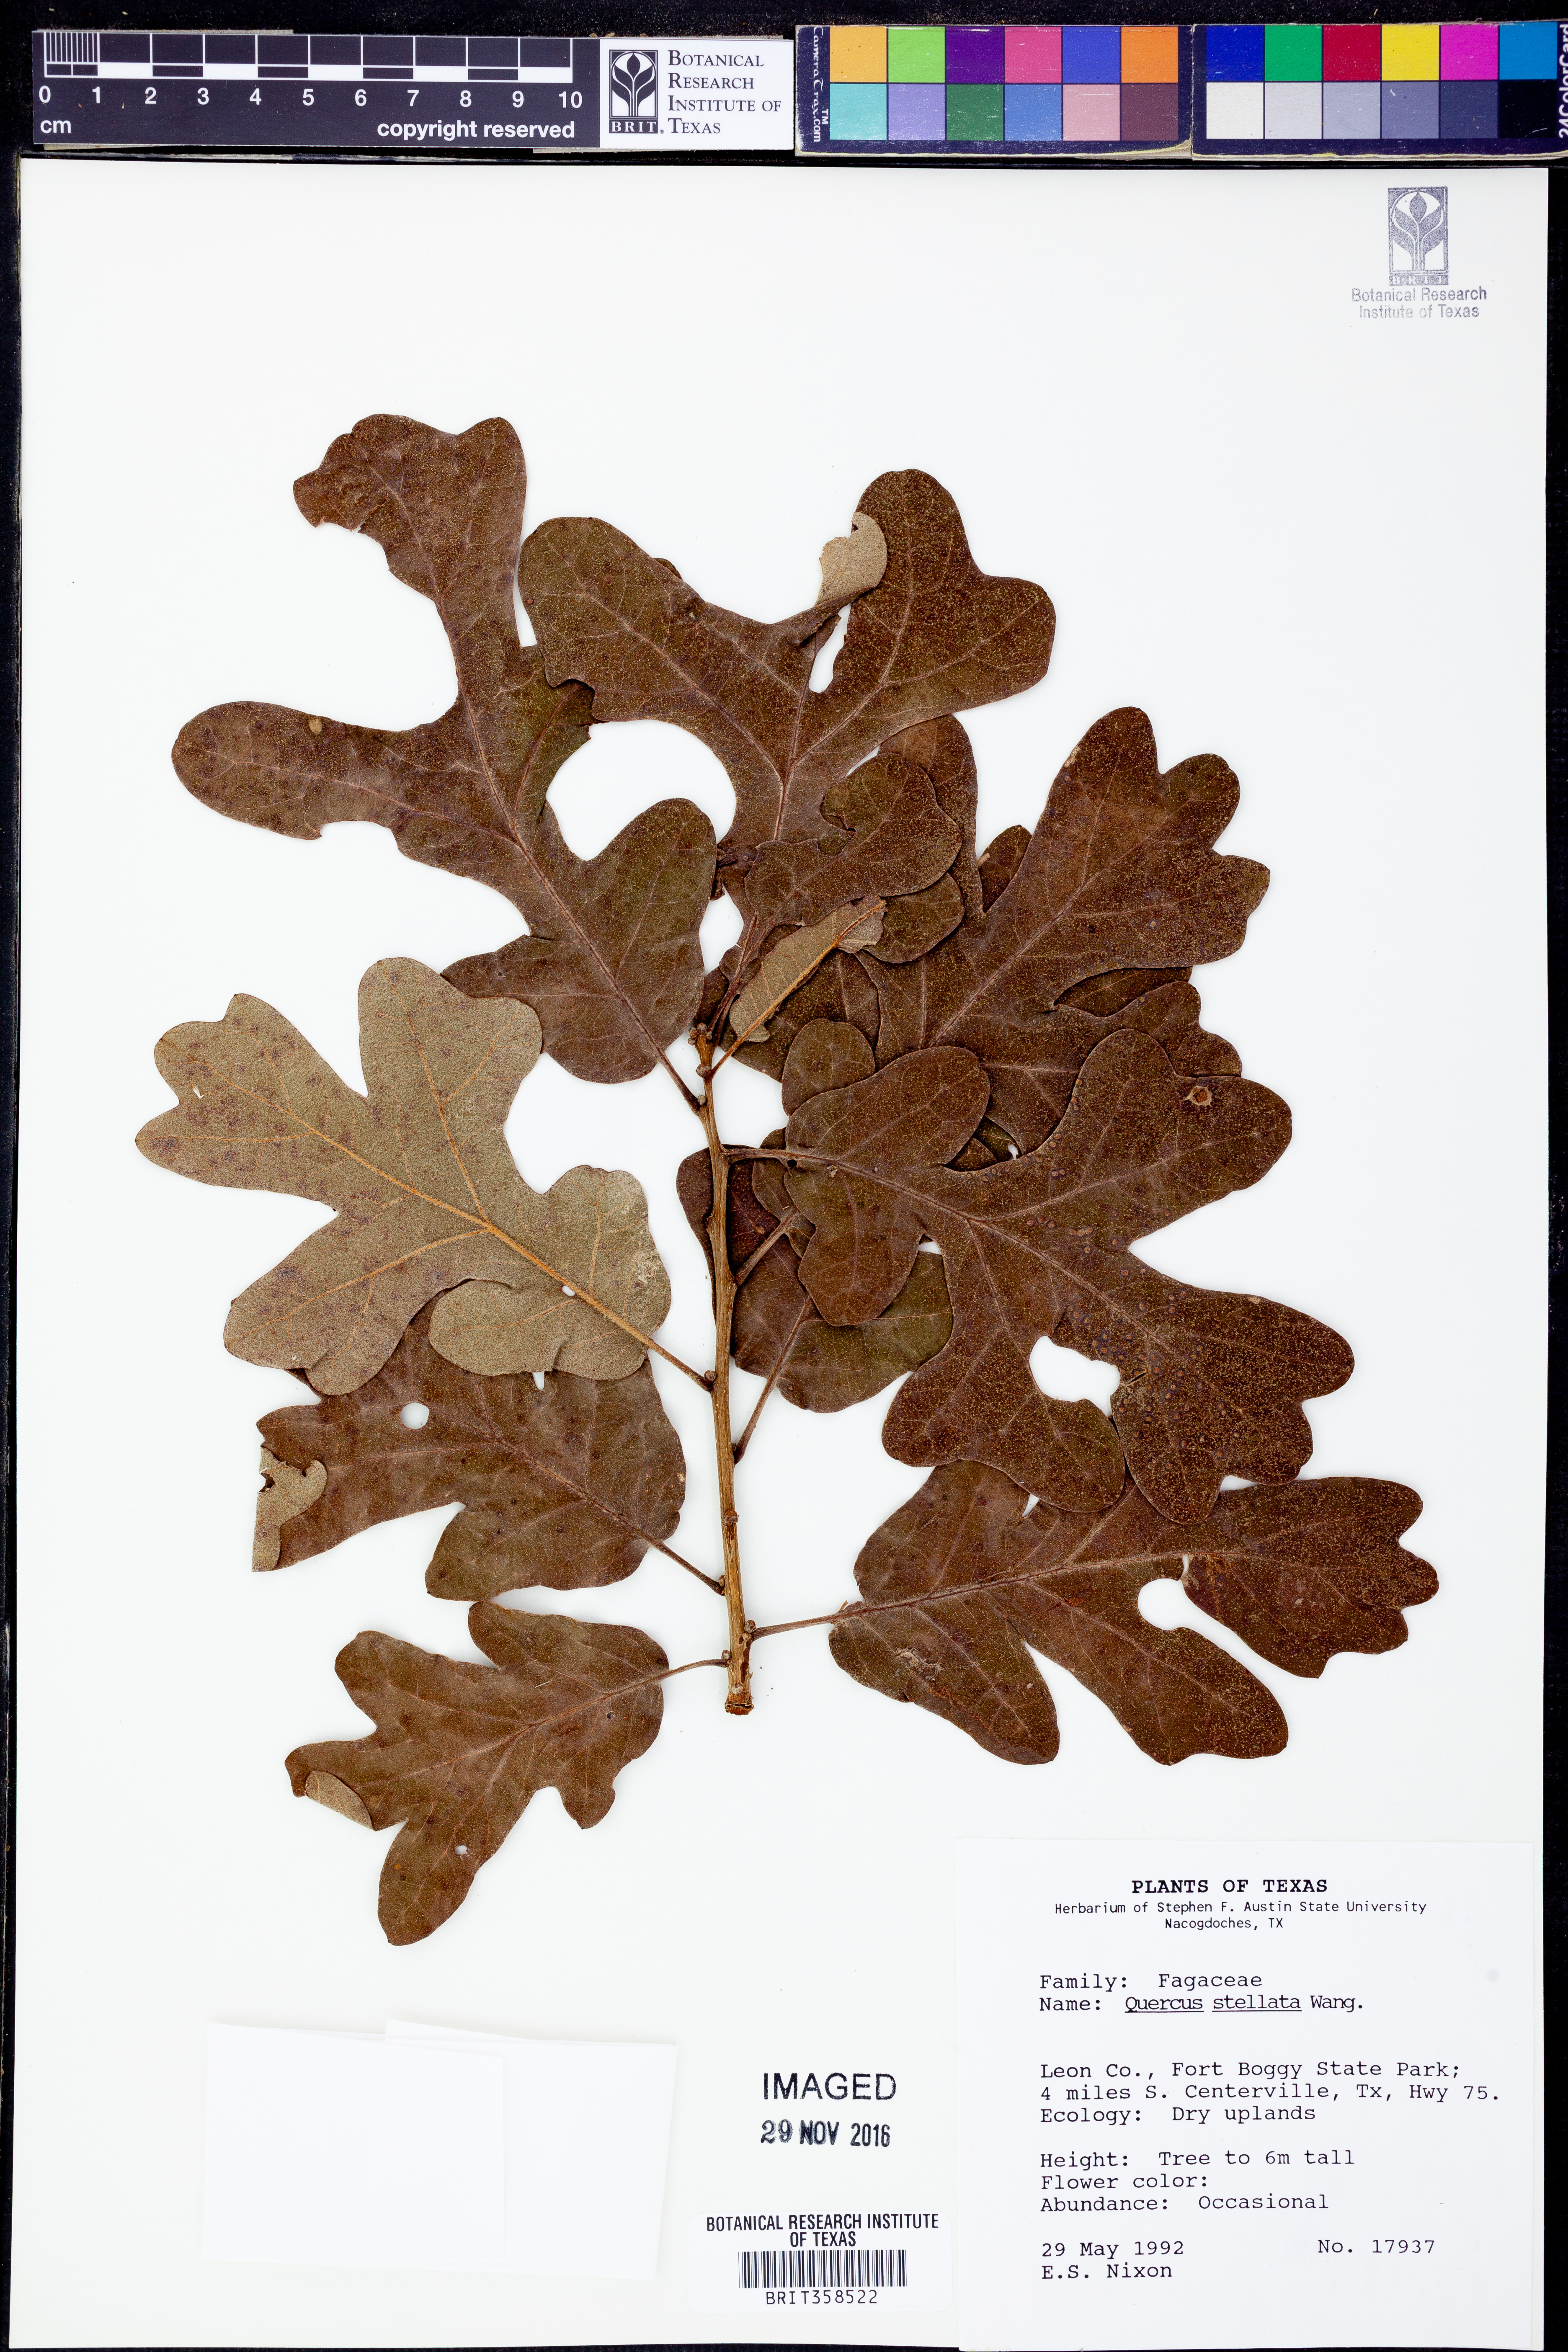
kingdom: Plantae
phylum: Tracheophyta
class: Magnoliopsida
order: Fagales
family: Fagaceae
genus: Quercus
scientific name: Quercus stellata
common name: Post oak
